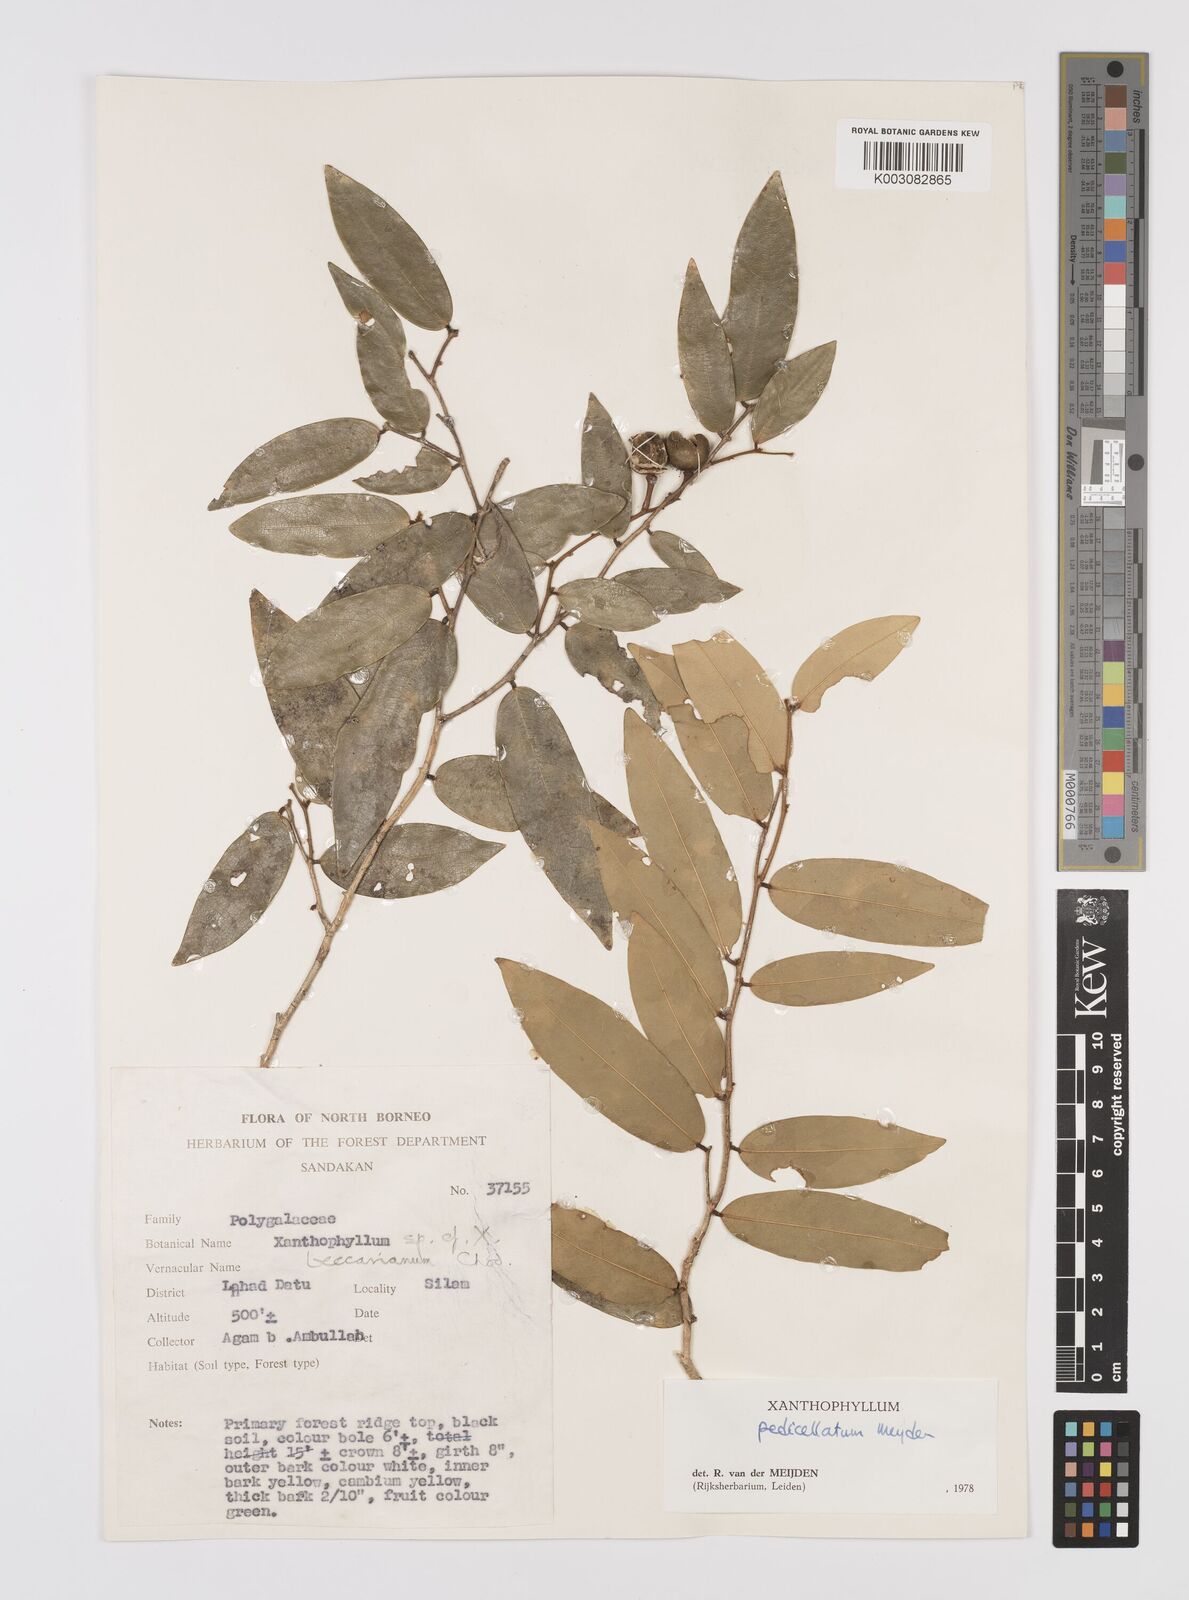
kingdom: Plantae
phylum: Tracheophyta
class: Magnoliopsida
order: Fabales
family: Polygalaceae
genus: Xanthophyllum
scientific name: Xanthophyllum pedicellatum
